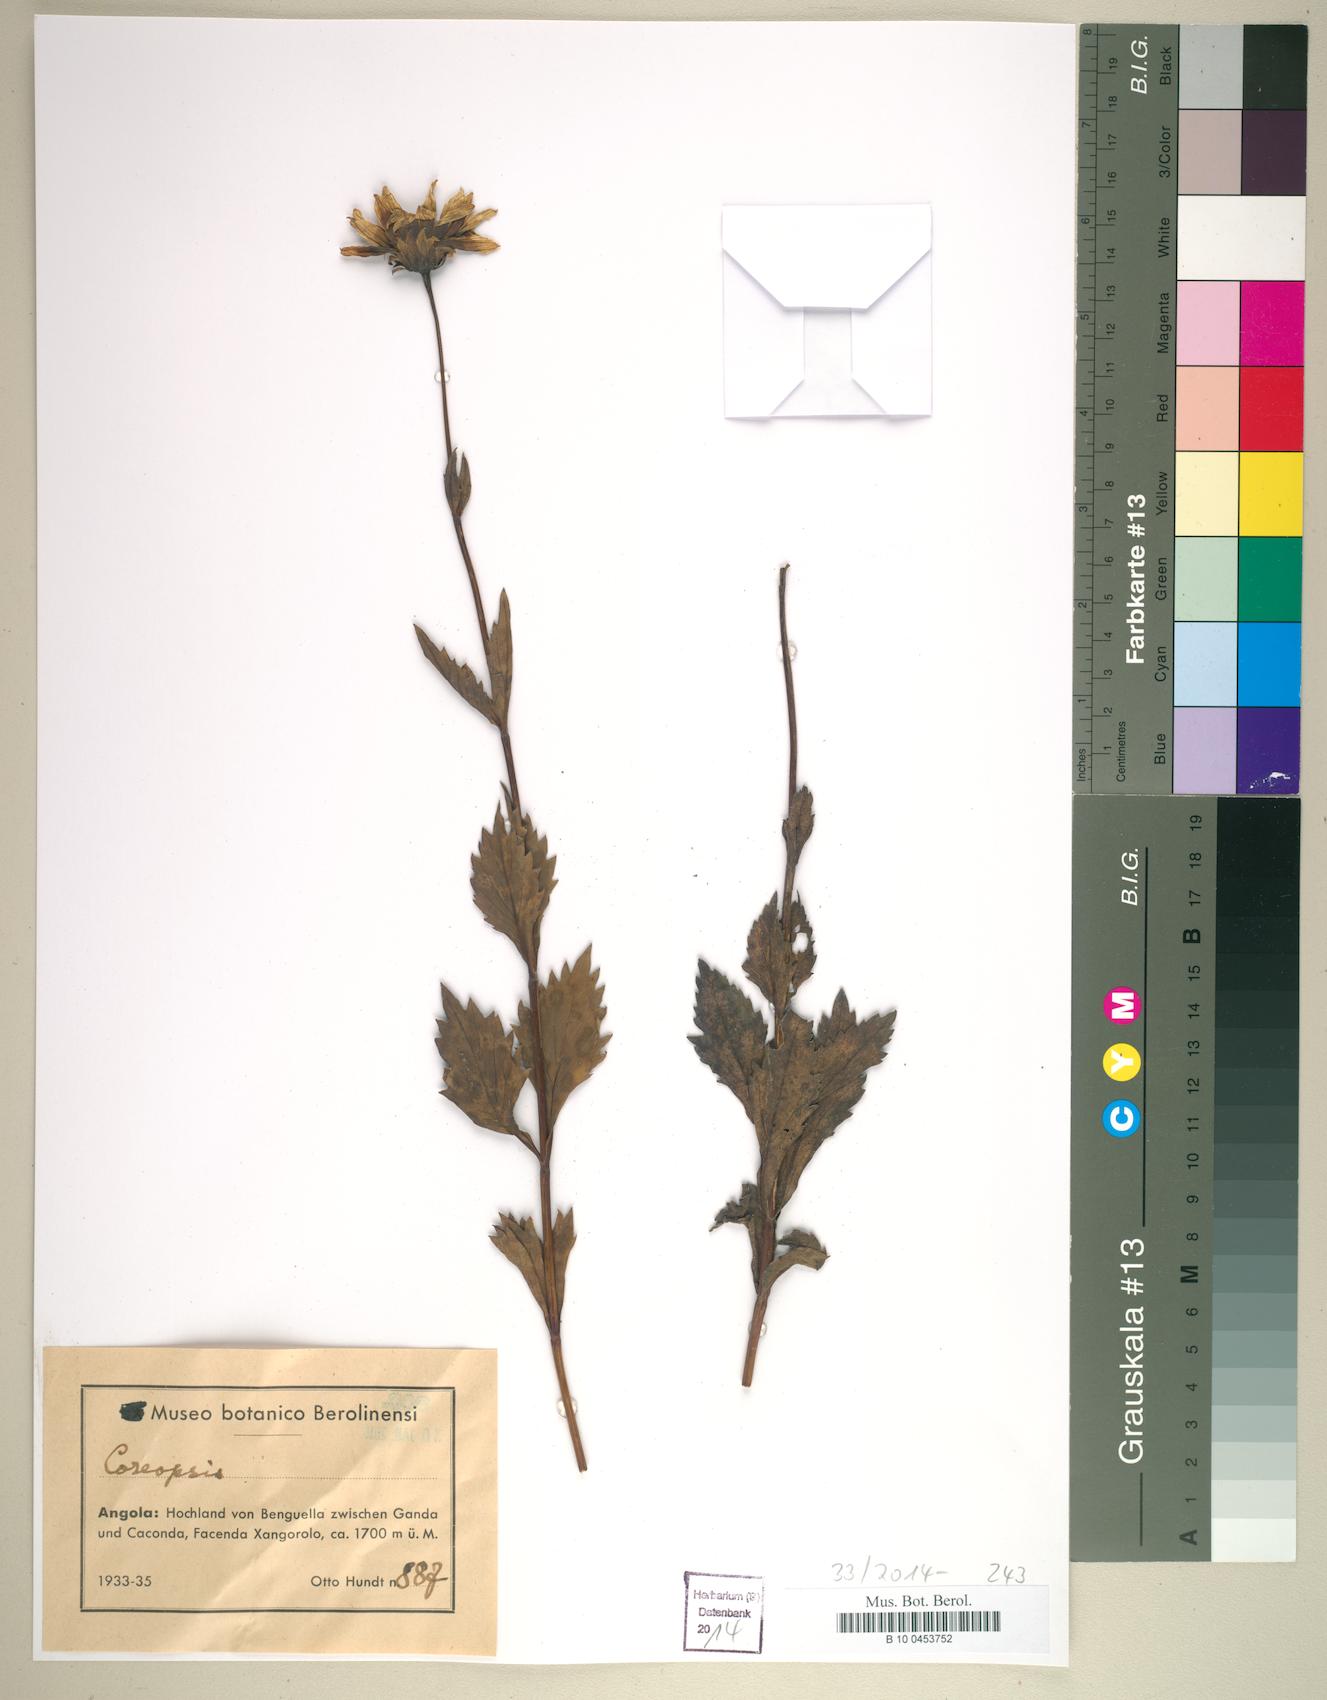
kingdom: Plantae
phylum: Tracheophyta
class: Magnoliopsida
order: Asterales
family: Asteraceae
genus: Coreopsis
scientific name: Coreopsis
